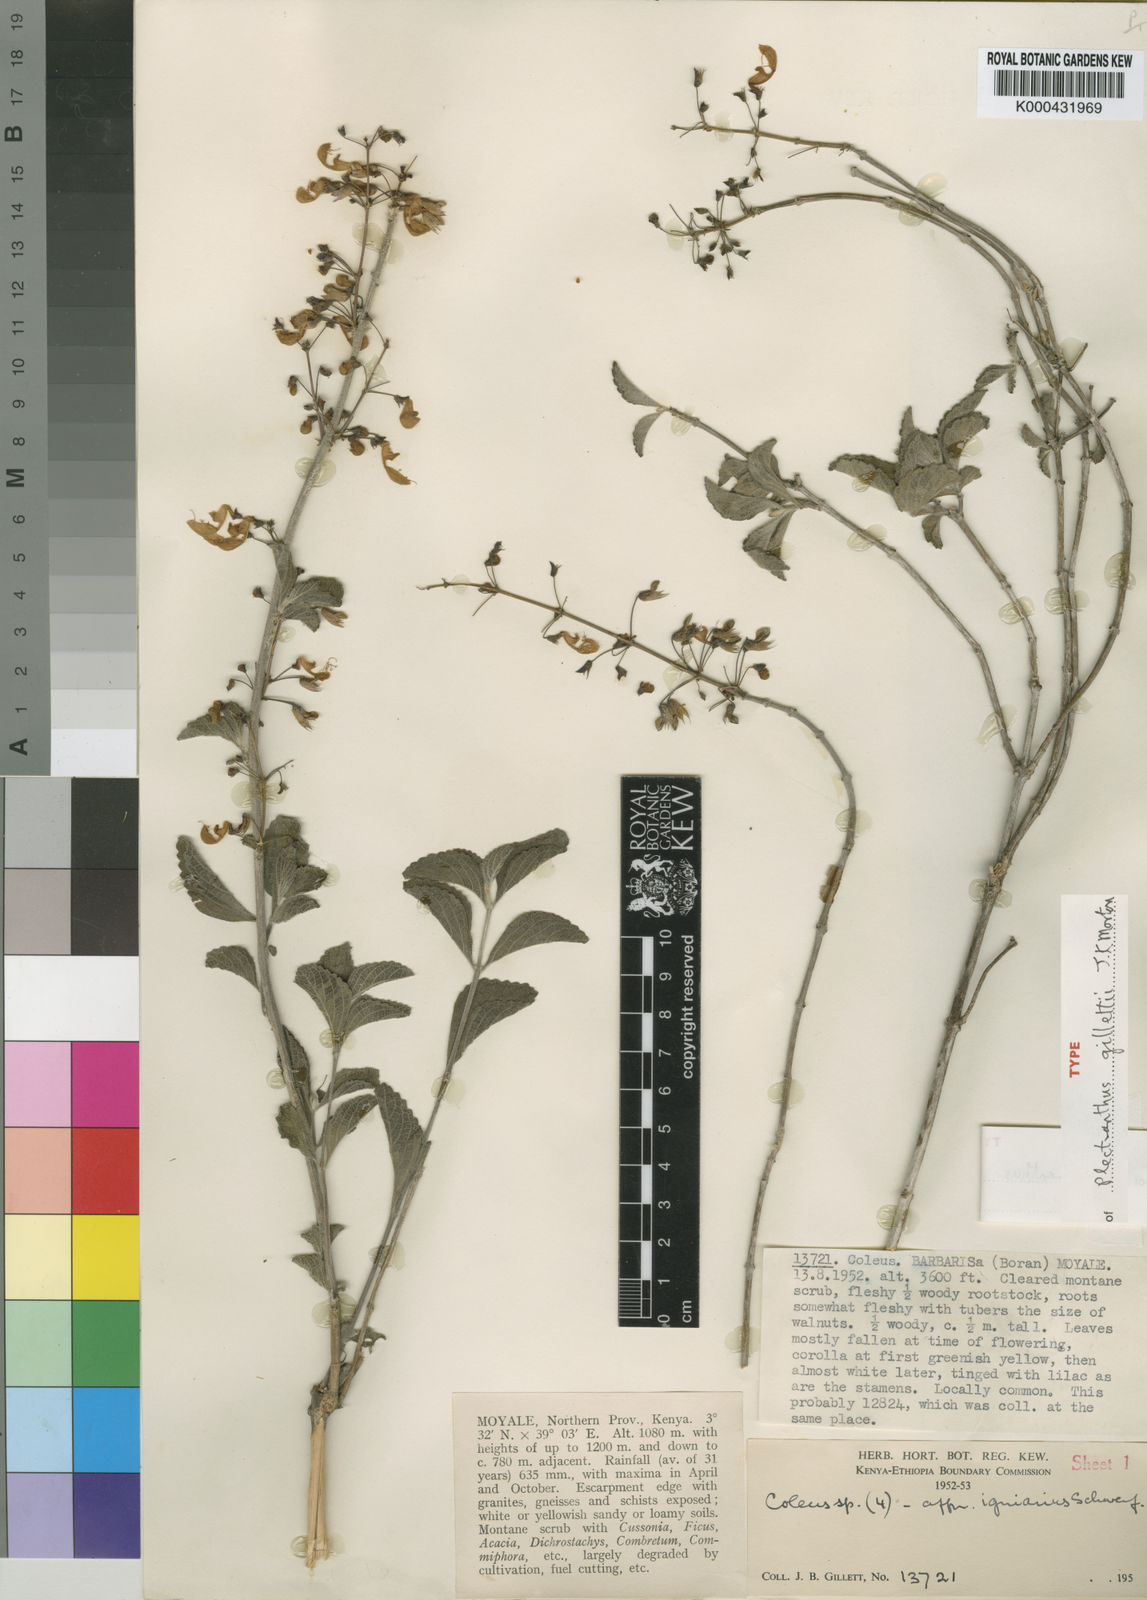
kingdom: Plantae
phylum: Tracheophyta
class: Magnoliopsida
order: Lamiales
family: Lamiaceae
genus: Coleus
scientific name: Coleus gillettii
